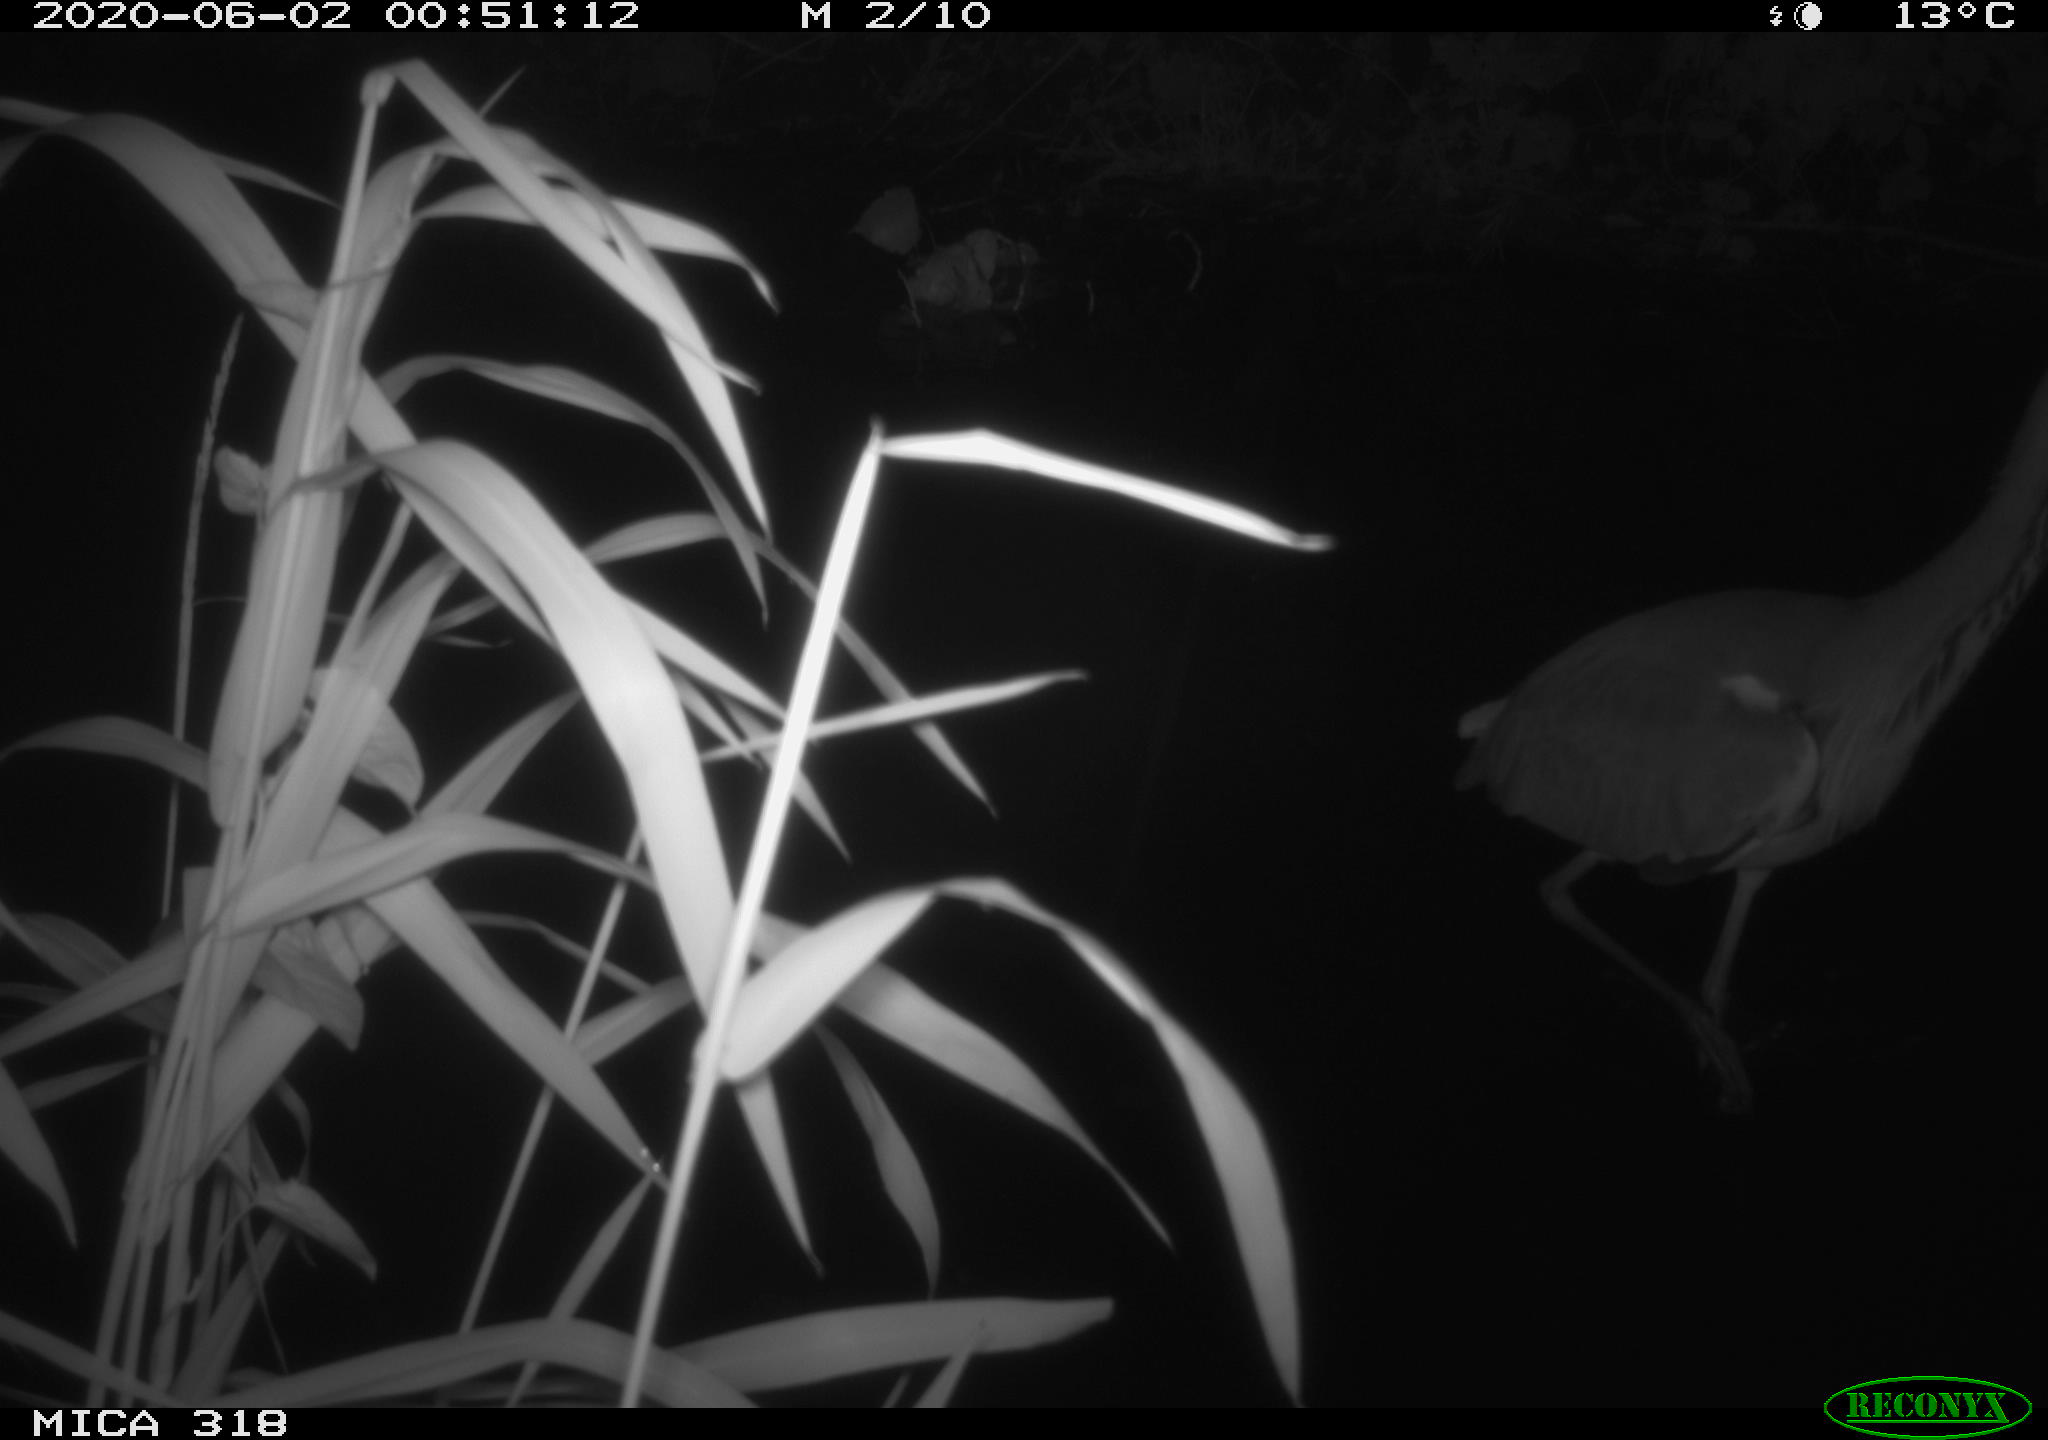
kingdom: Animalia
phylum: Chordata
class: Aves
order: Pelecaniformes
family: Ardeidae
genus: Ardea
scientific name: Ardea cinerea
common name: Grey heron
